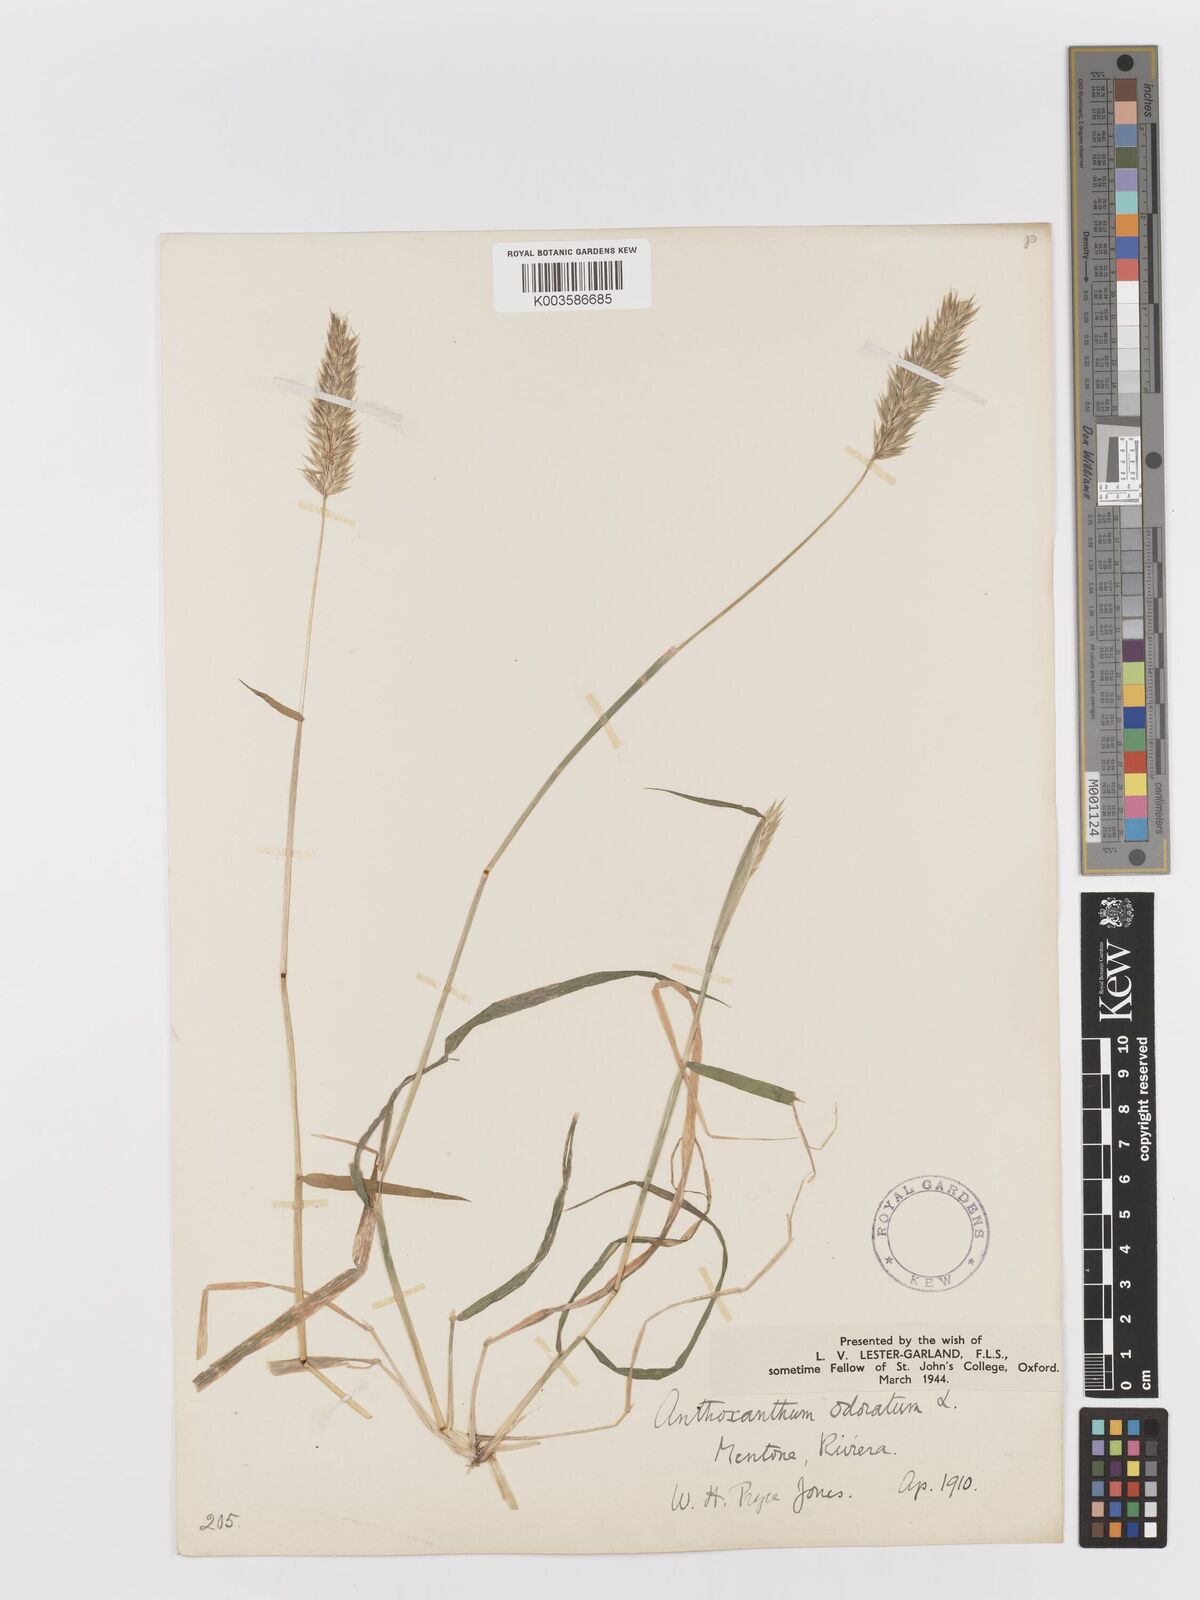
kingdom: Plantae
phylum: Tracheophyta
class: Liliopsida
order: Poales
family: Poaceae
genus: Anthoxanthum
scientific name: Anthoxanthum odoratum
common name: Sweet vernalgrass
